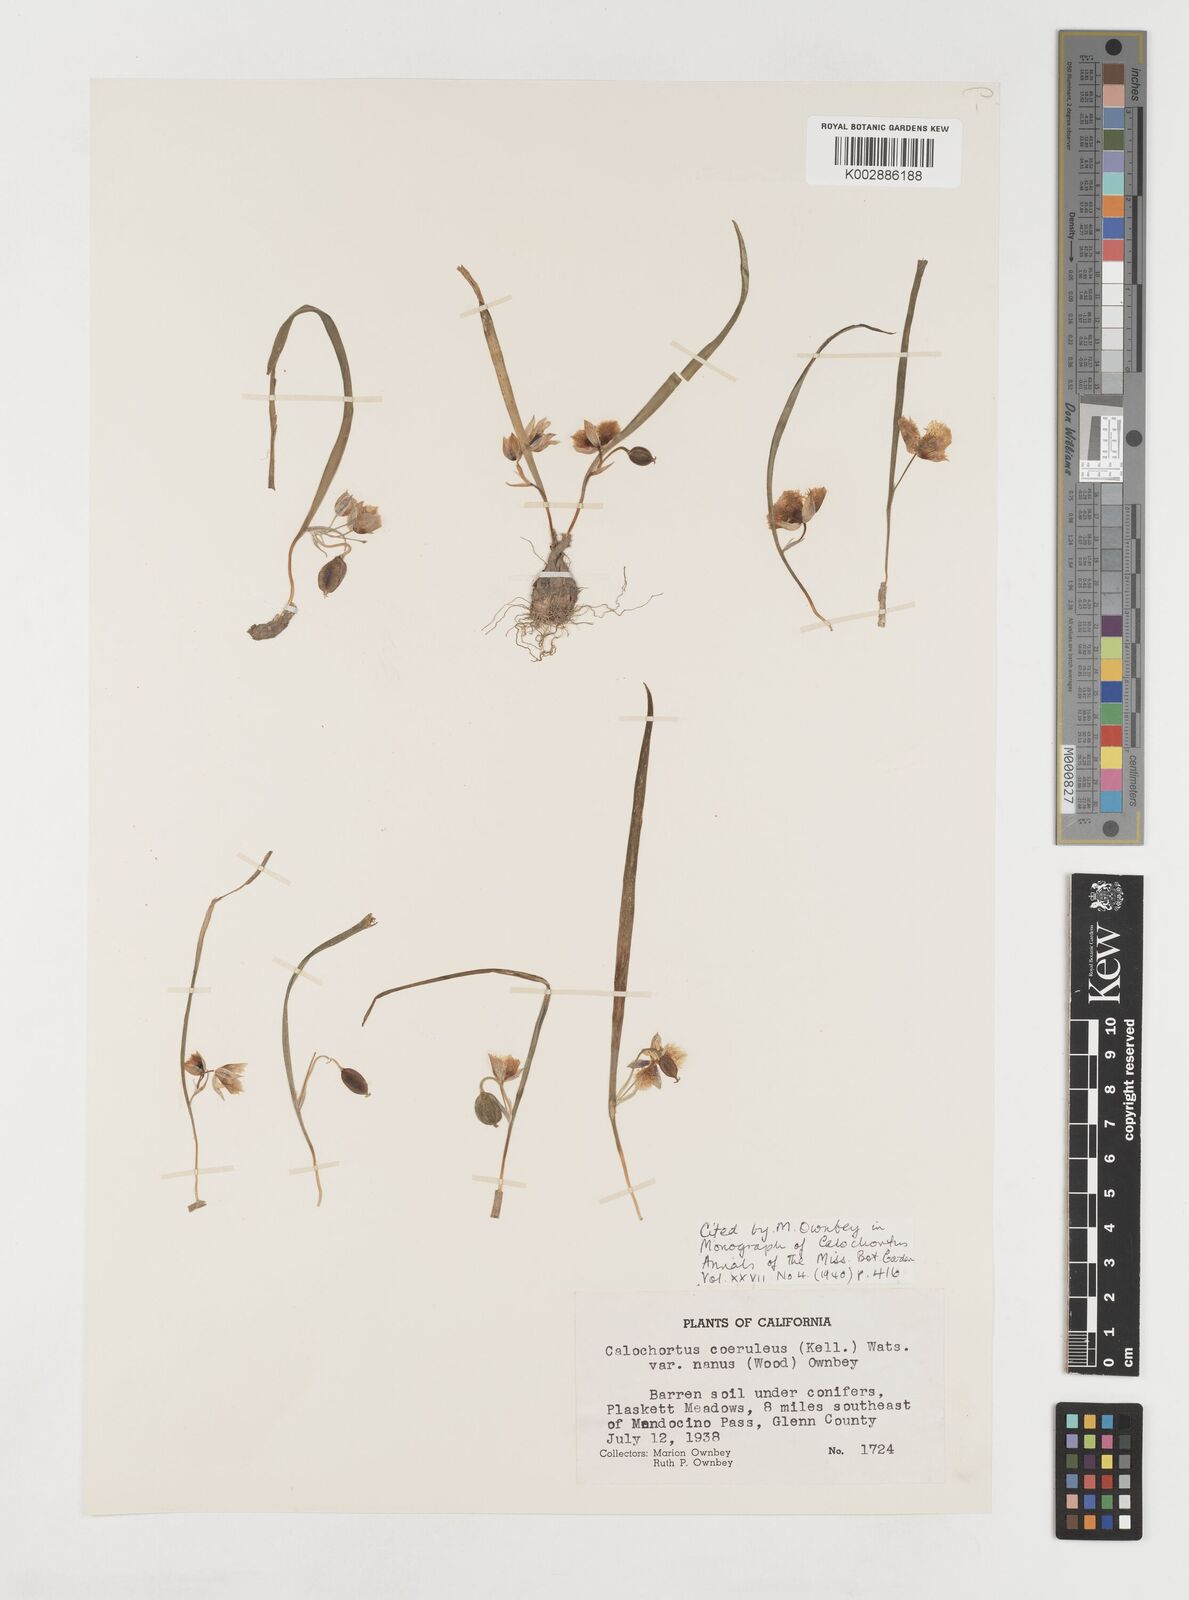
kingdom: Plantae
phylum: Tracheophyta
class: Liliopsida
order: Liliales
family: Liliaceae
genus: Calochortus
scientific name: Calochortus elegans
